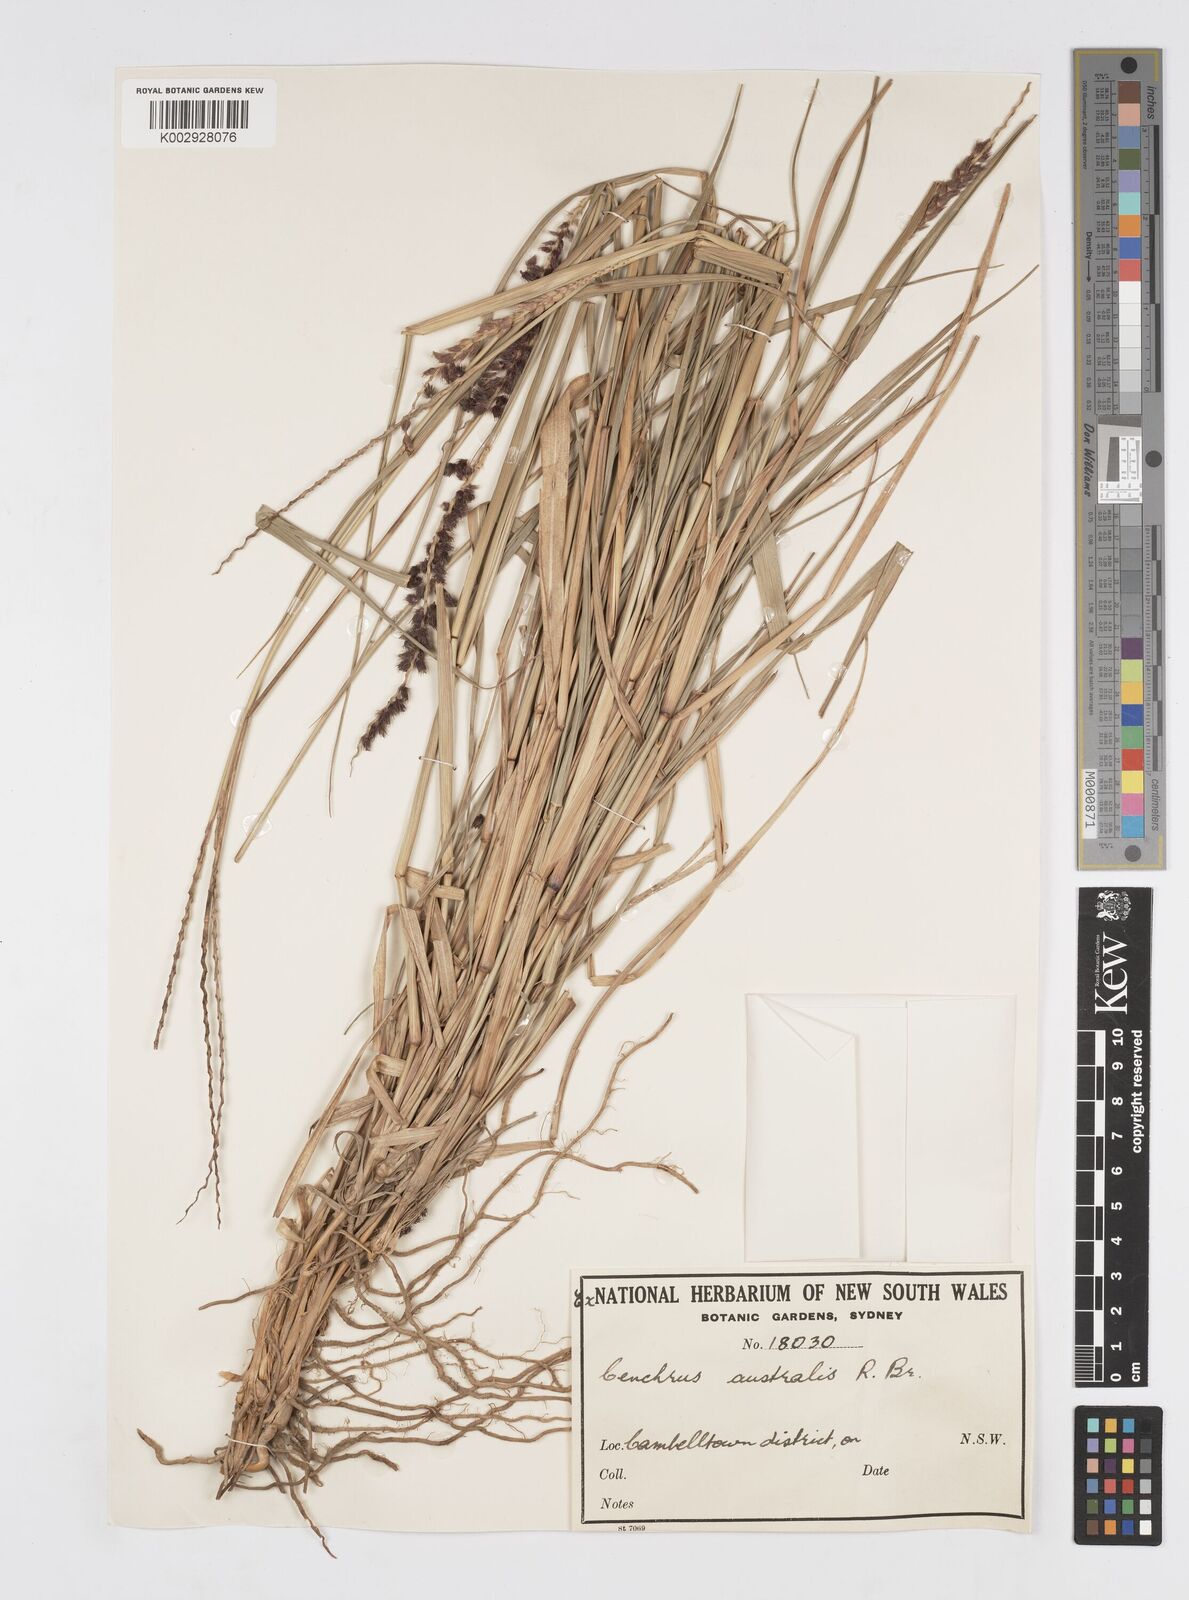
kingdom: Plantae
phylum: Tracheophyta
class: Liliopsida
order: Poales
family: Poaceae
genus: Cenchrus
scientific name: Cenchrus caliculatus
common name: Large bur grass
